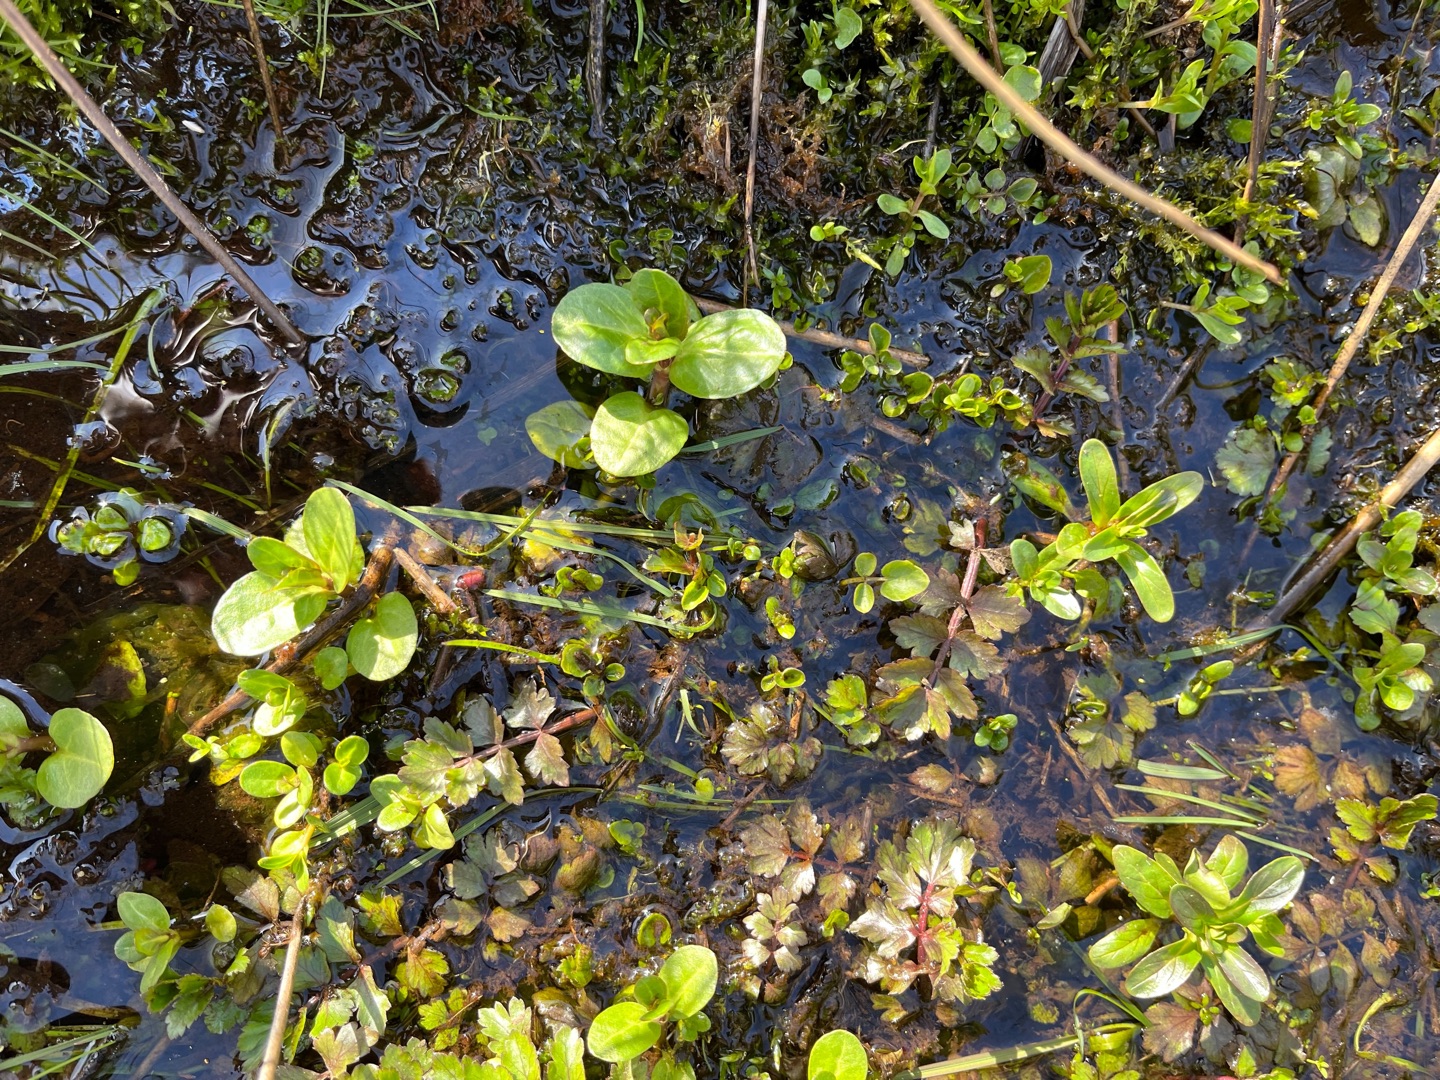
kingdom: Plantae
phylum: Tracheophyta
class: Magnoliopsida
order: Lamiales
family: Plantaginaceae
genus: Veronica
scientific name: Veronica beccabunga
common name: Tykbladet ærenpris
